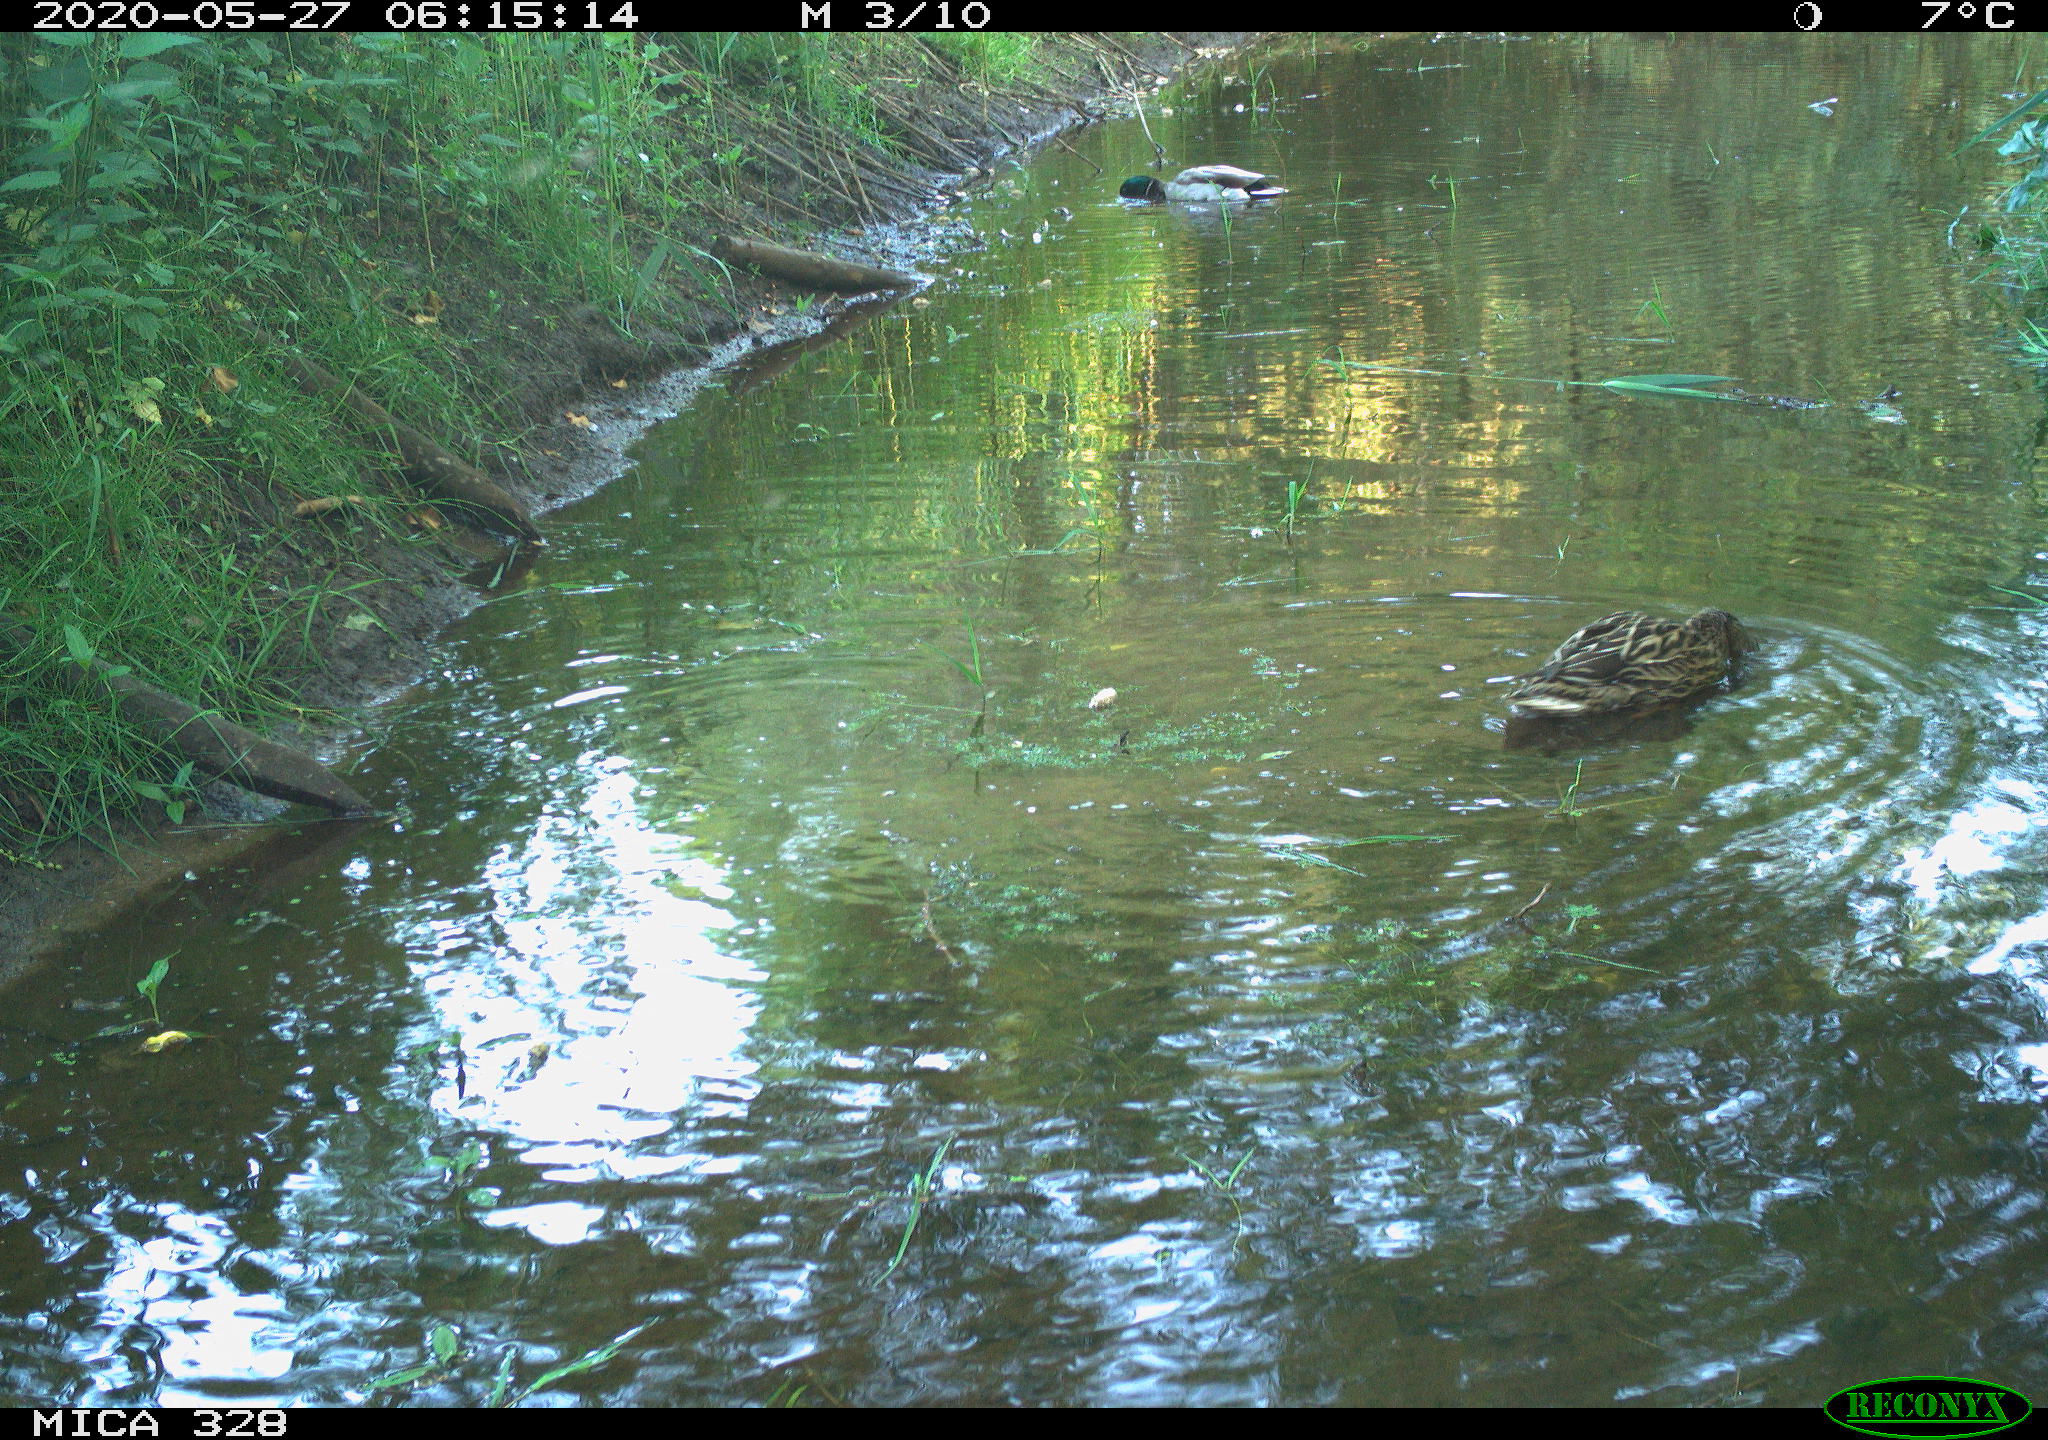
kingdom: Animalia
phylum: Chordata
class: Aves
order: Anseriformes
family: Anatidae
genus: Anas
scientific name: Anas platyrhynchos
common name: Mallard
